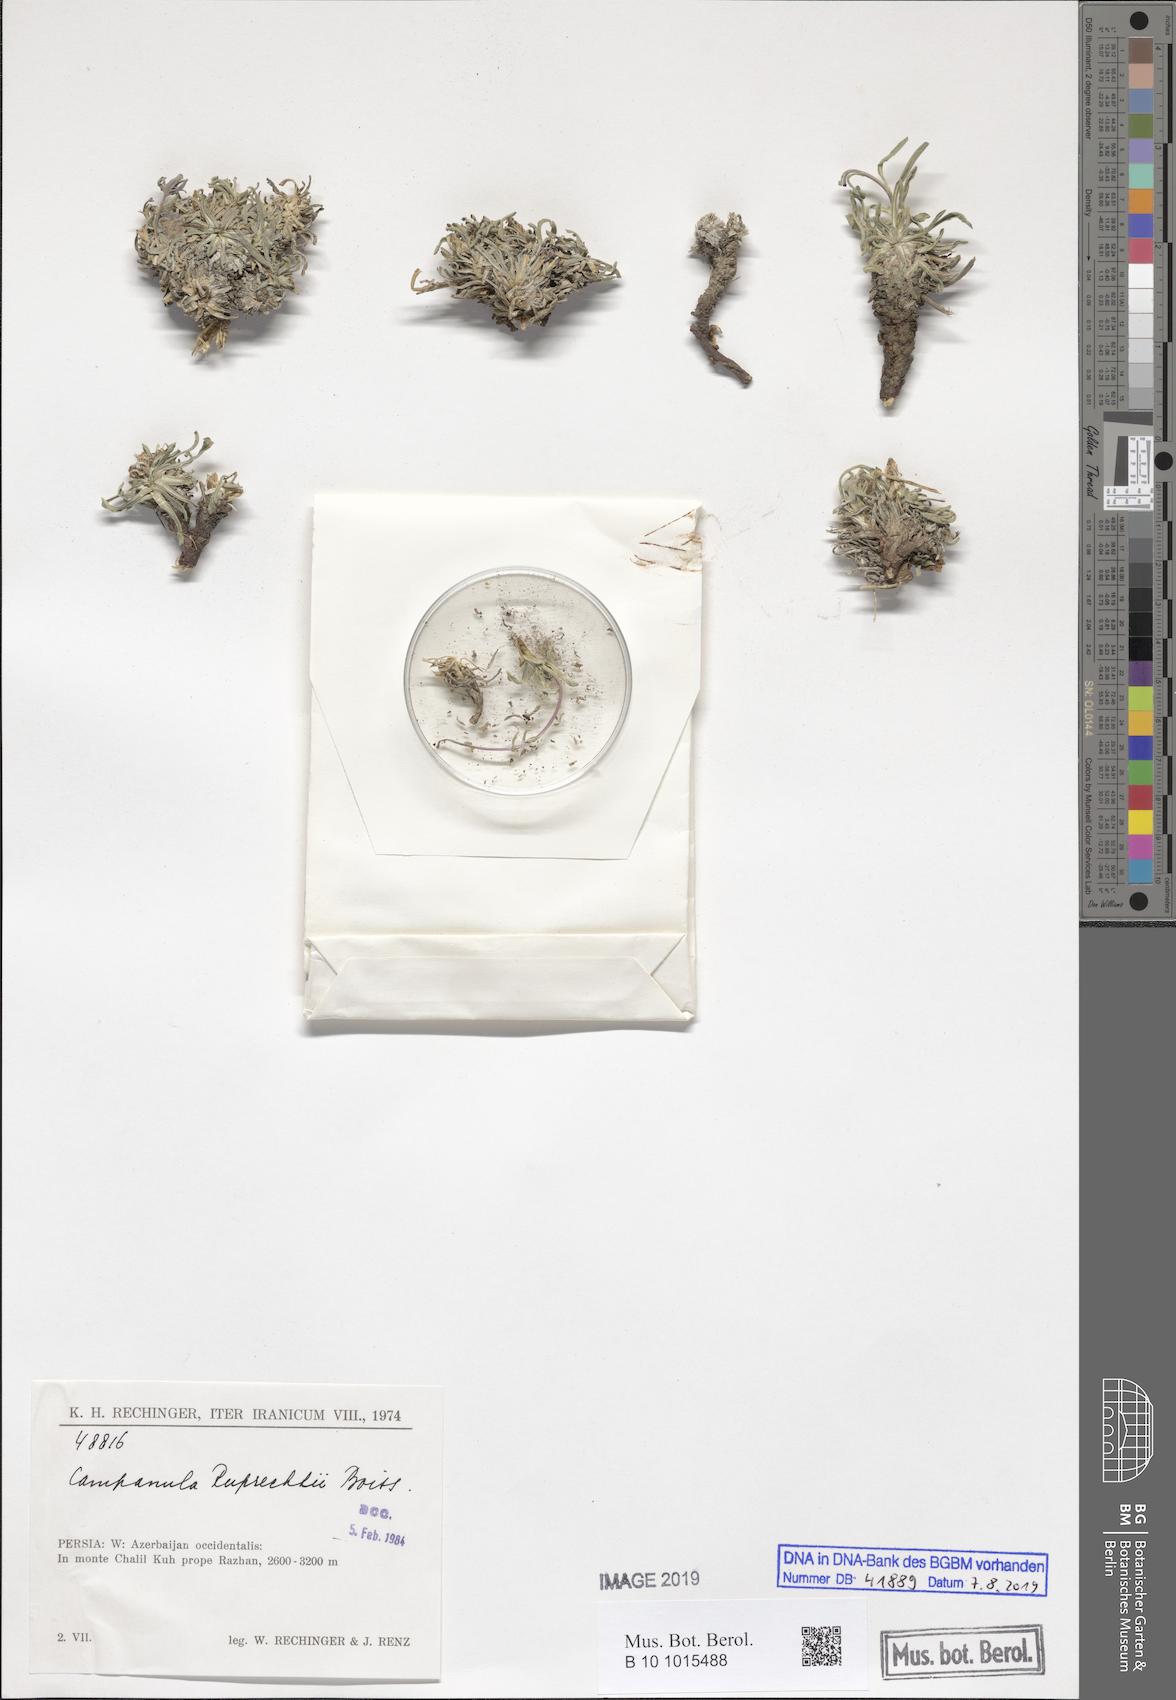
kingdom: Plantae
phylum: Tracheophyta
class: Magnoliopsida
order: Asterales
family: Campanulaceae
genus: Campanula
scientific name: Campanula saxifraga
